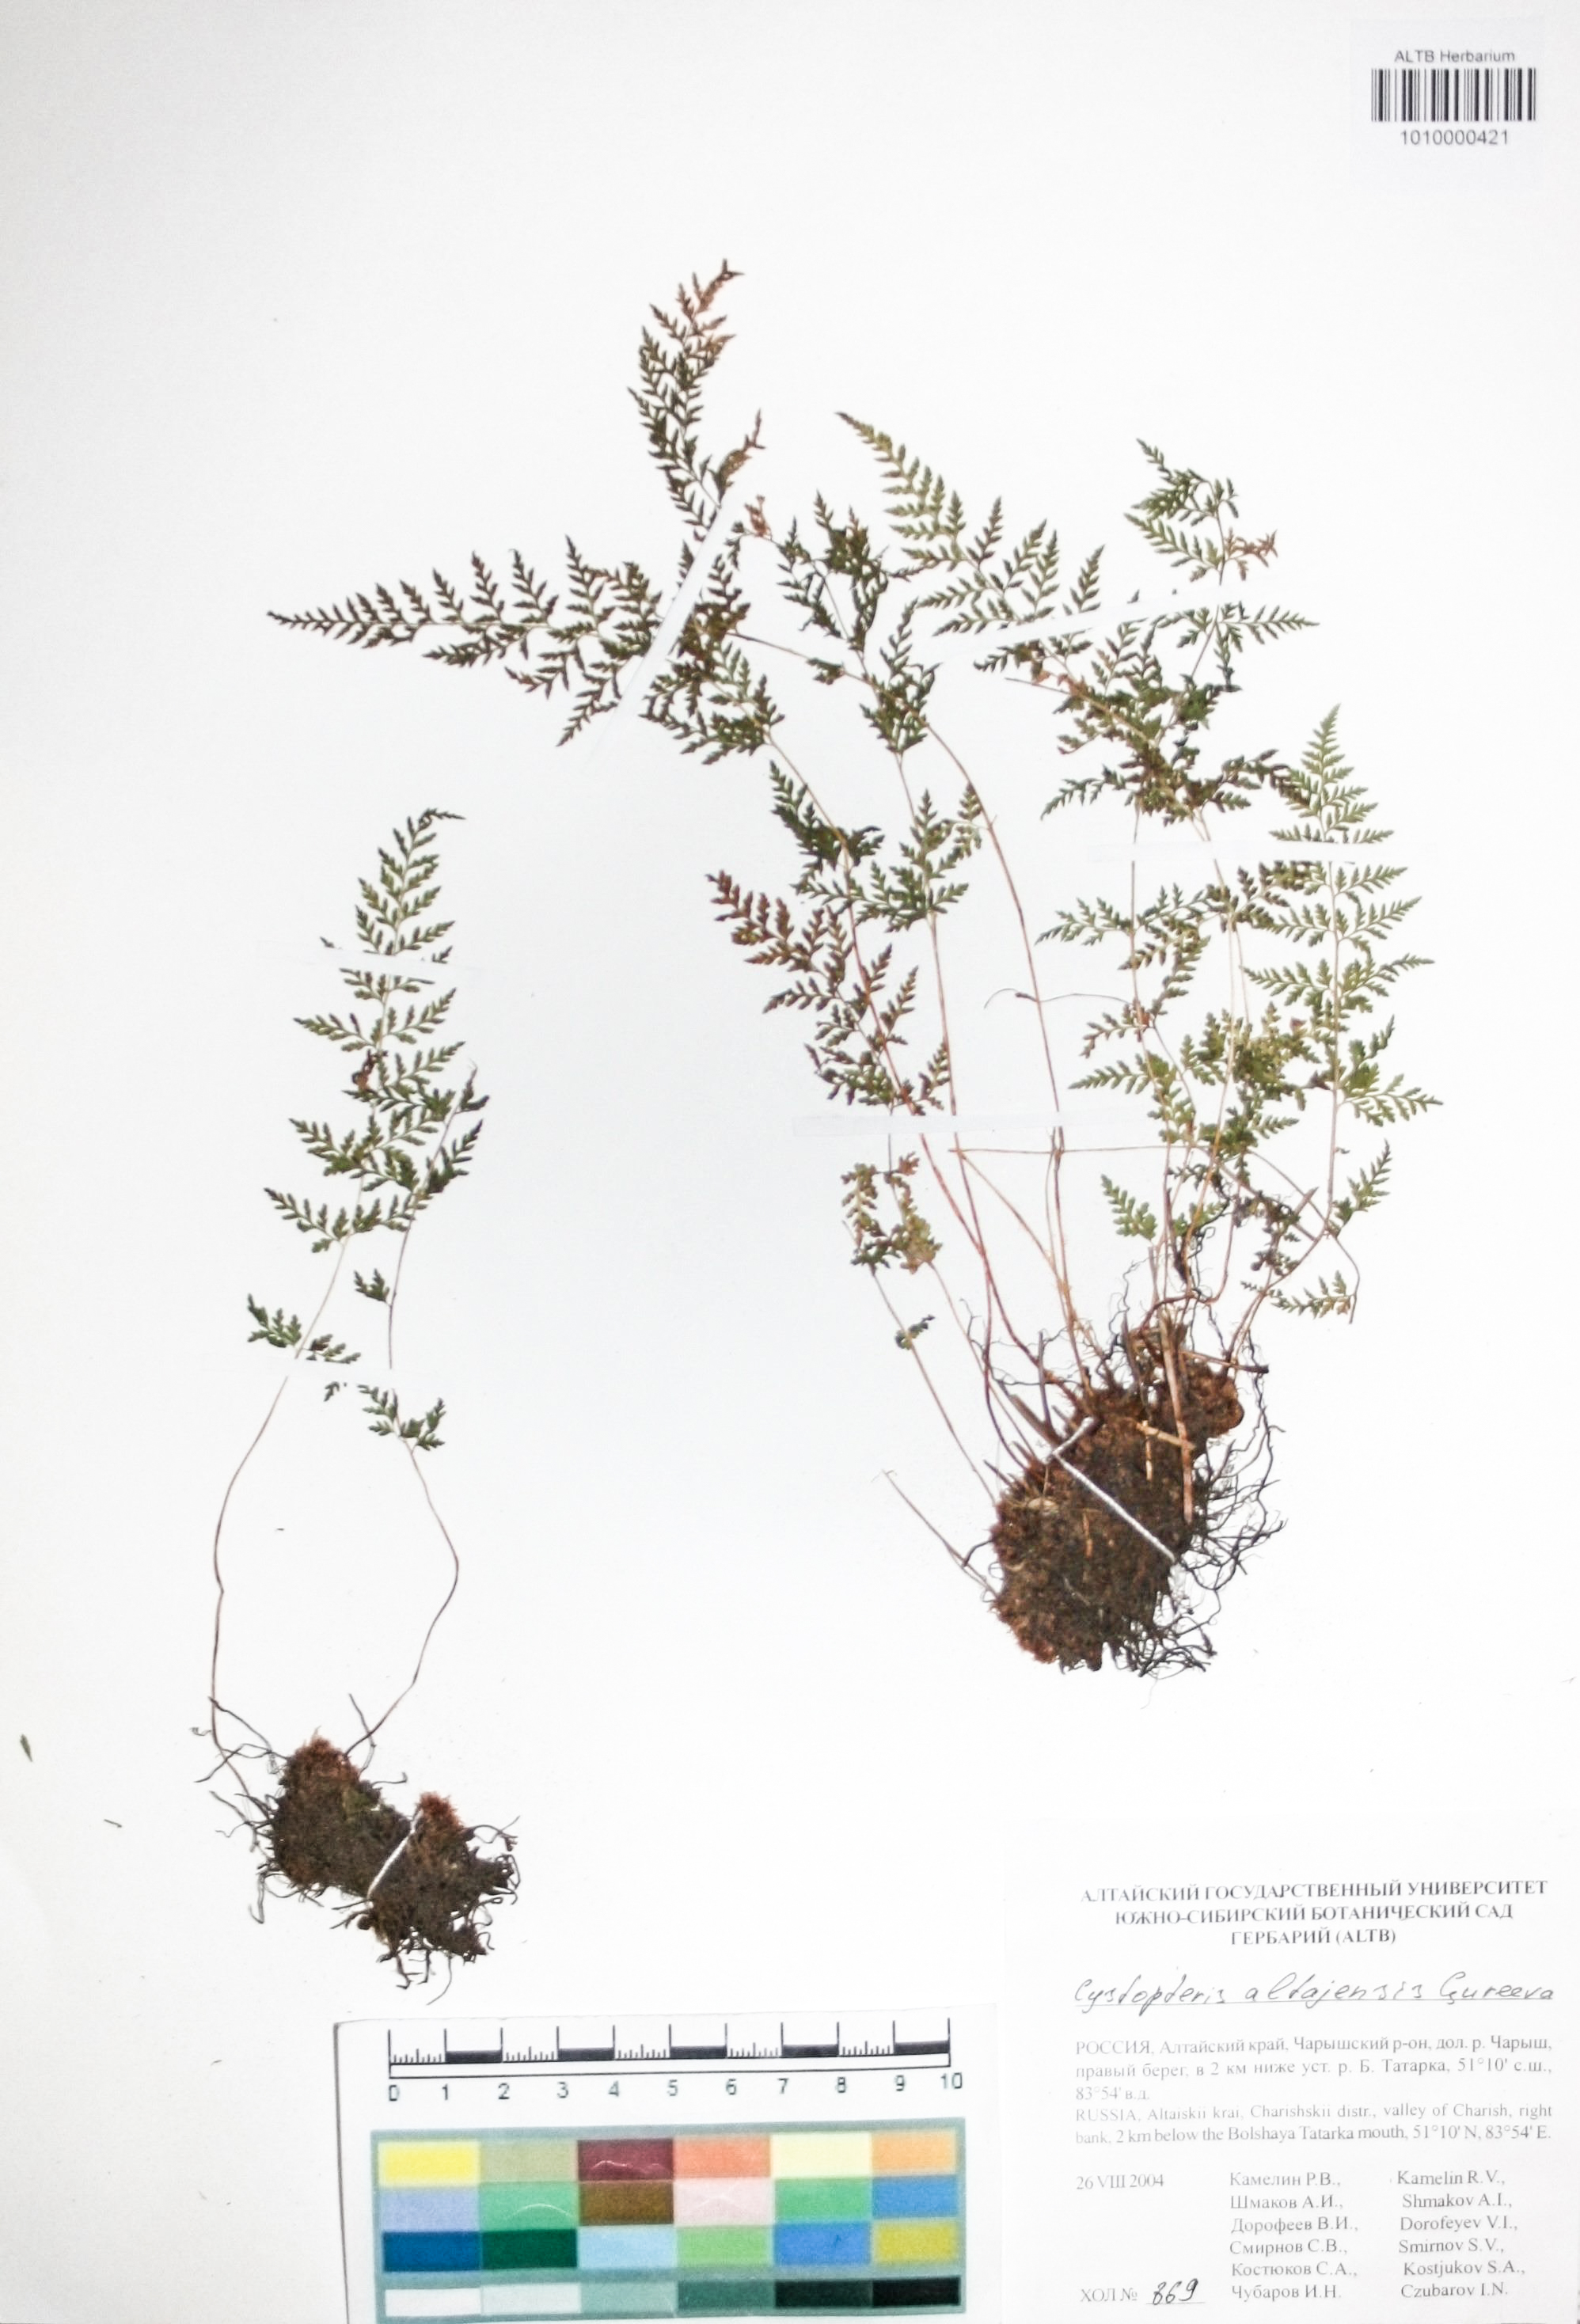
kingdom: Plantae
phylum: Tracheophyta
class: Polypodiopsida
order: Polypodiales
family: Cystopteridaceae
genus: Cystopteris
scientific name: Cystopteris diaphana
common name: Greenish bladder-fern
